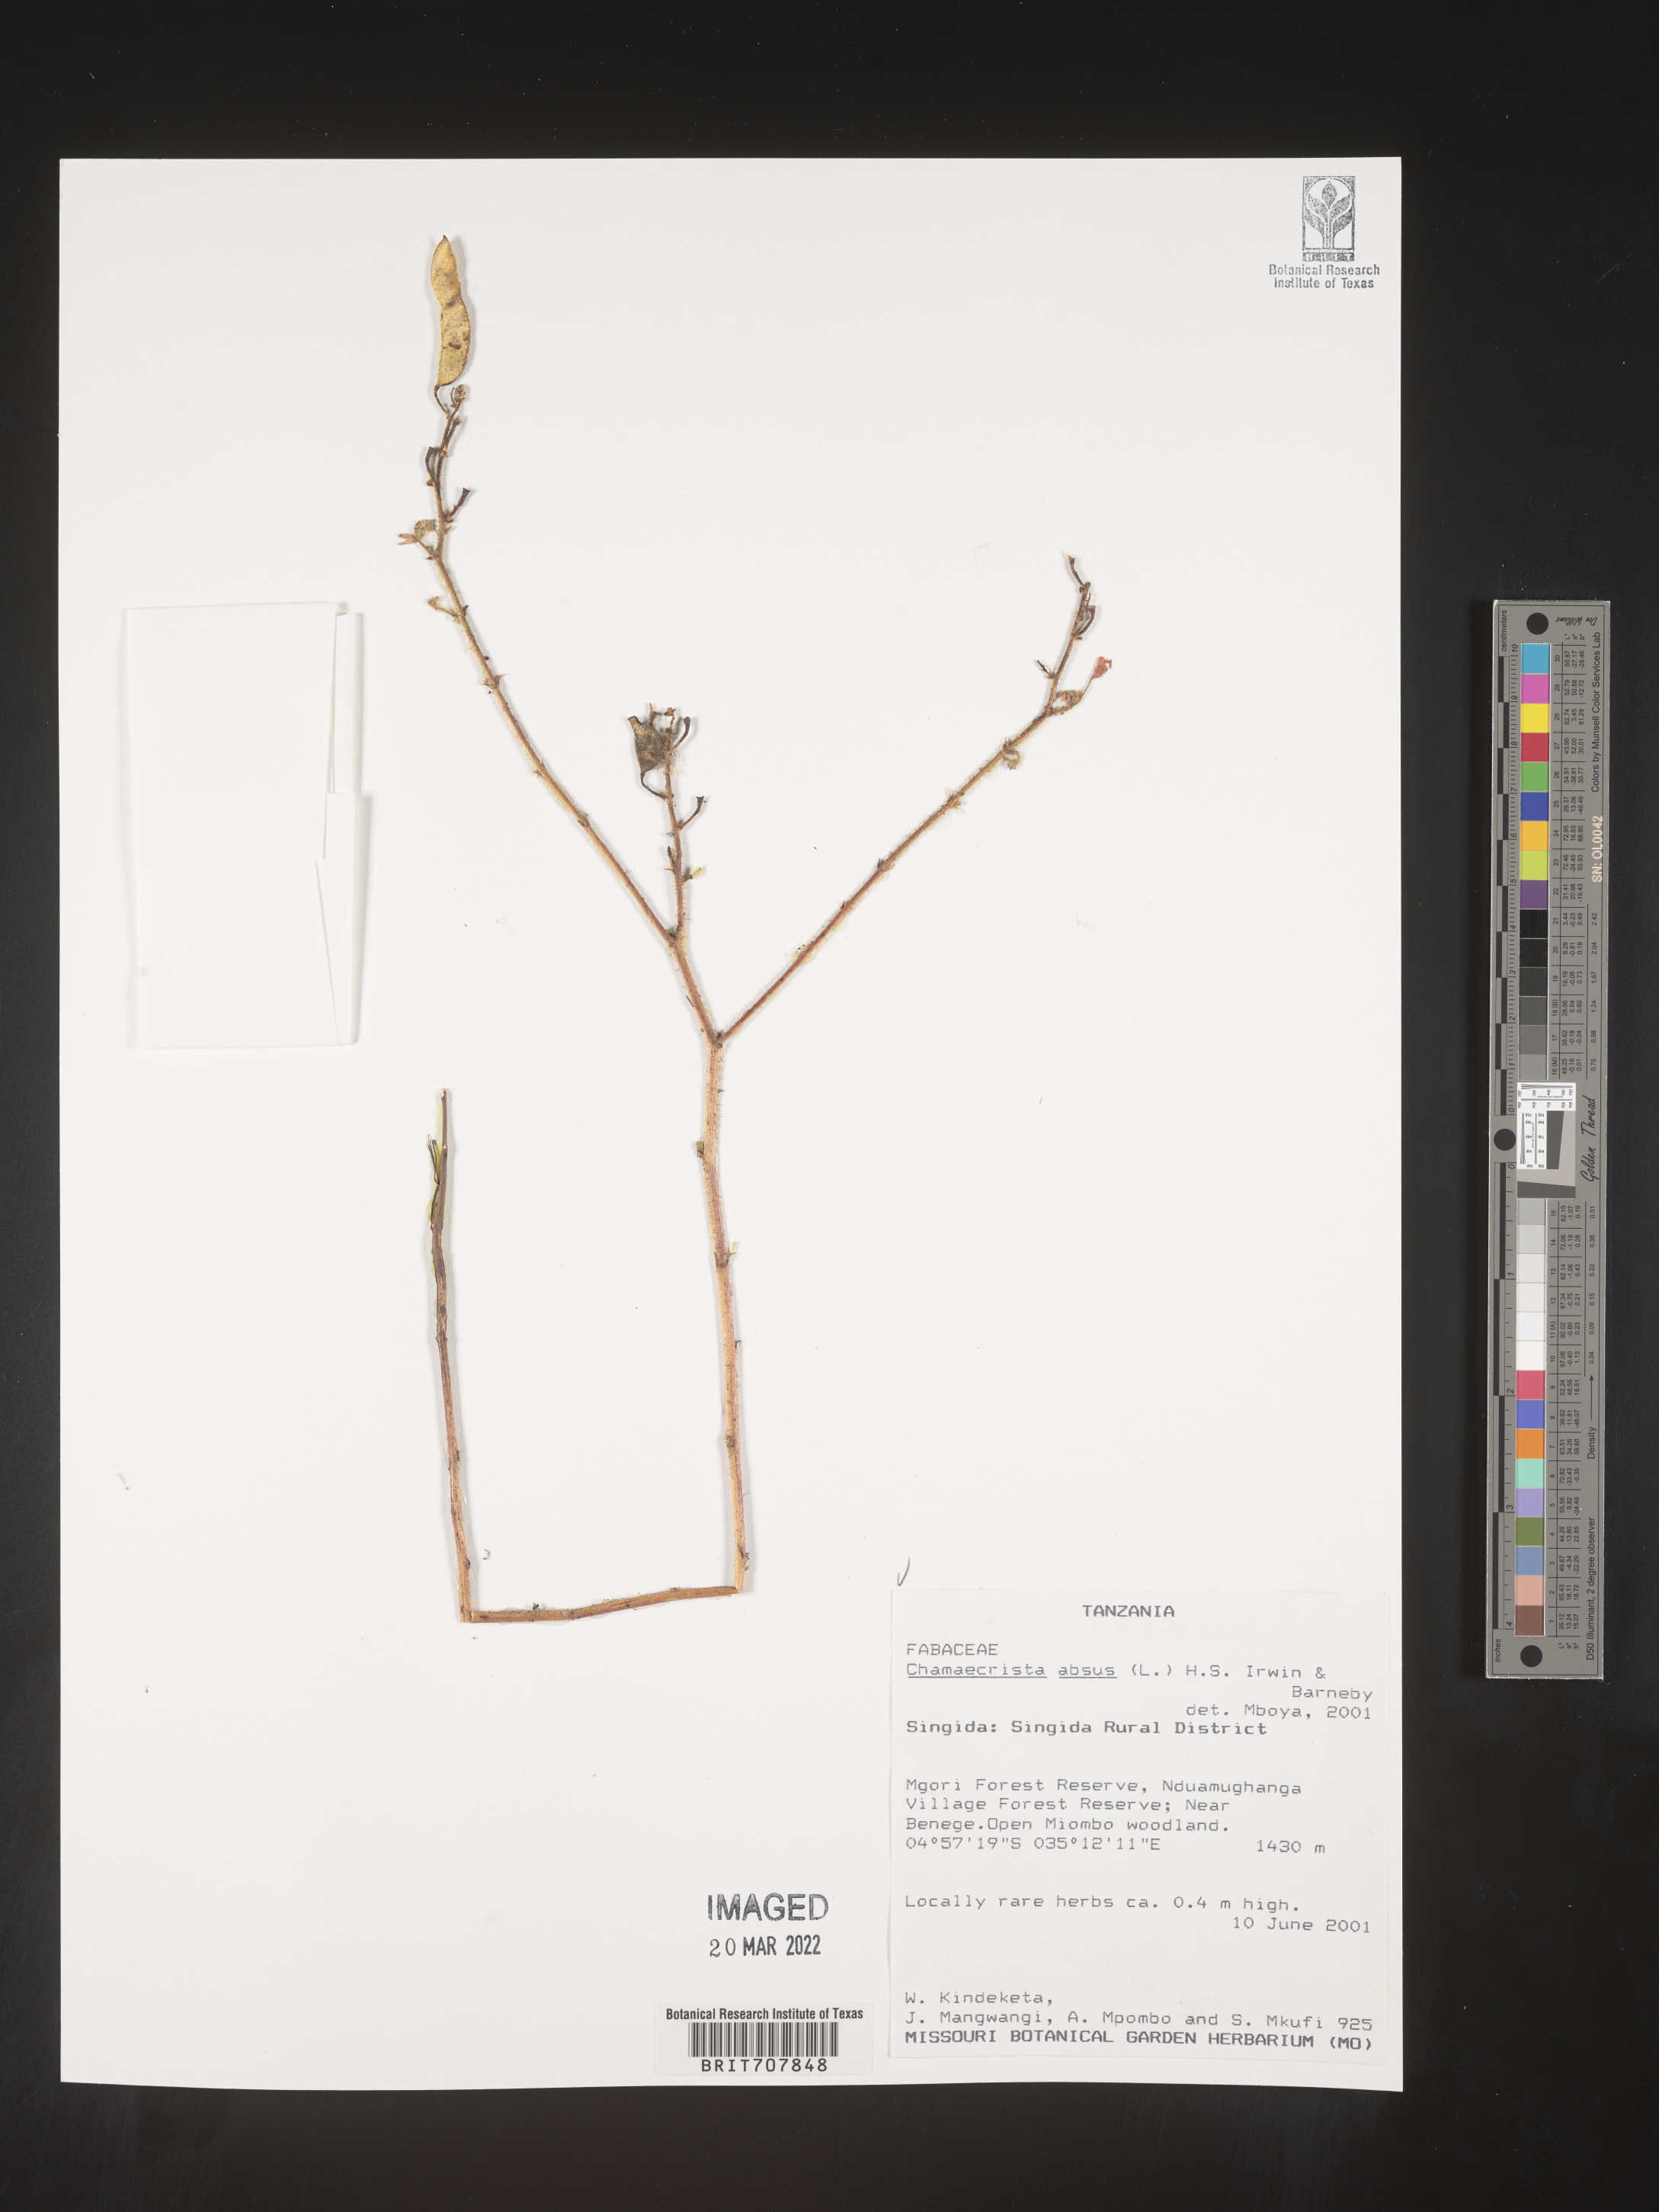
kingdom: Plantae
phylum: Tracheophyta
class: Magnoliopsida
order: Fabales
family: Fabaceae
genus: Chamaecrista
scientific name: Chamaecrista
